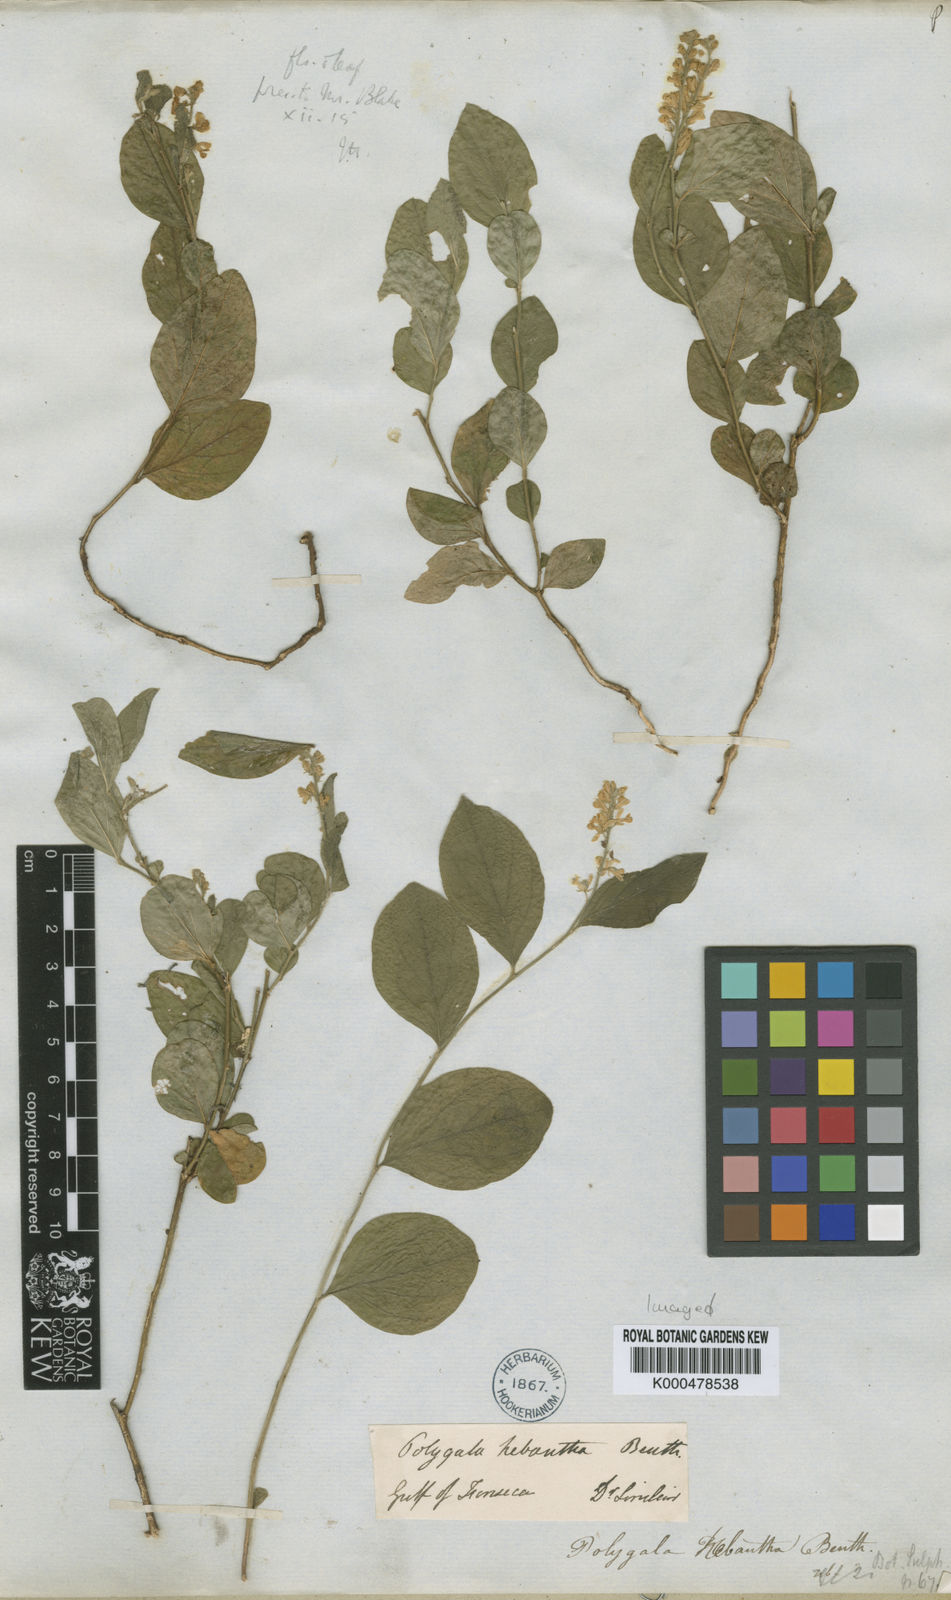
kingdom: Plantae
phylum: Tracheophyta
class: Magnoliopsida
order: Fabales
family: Polygalaceae
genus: Hebecarpa
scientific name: Hebecarpa hebantha
